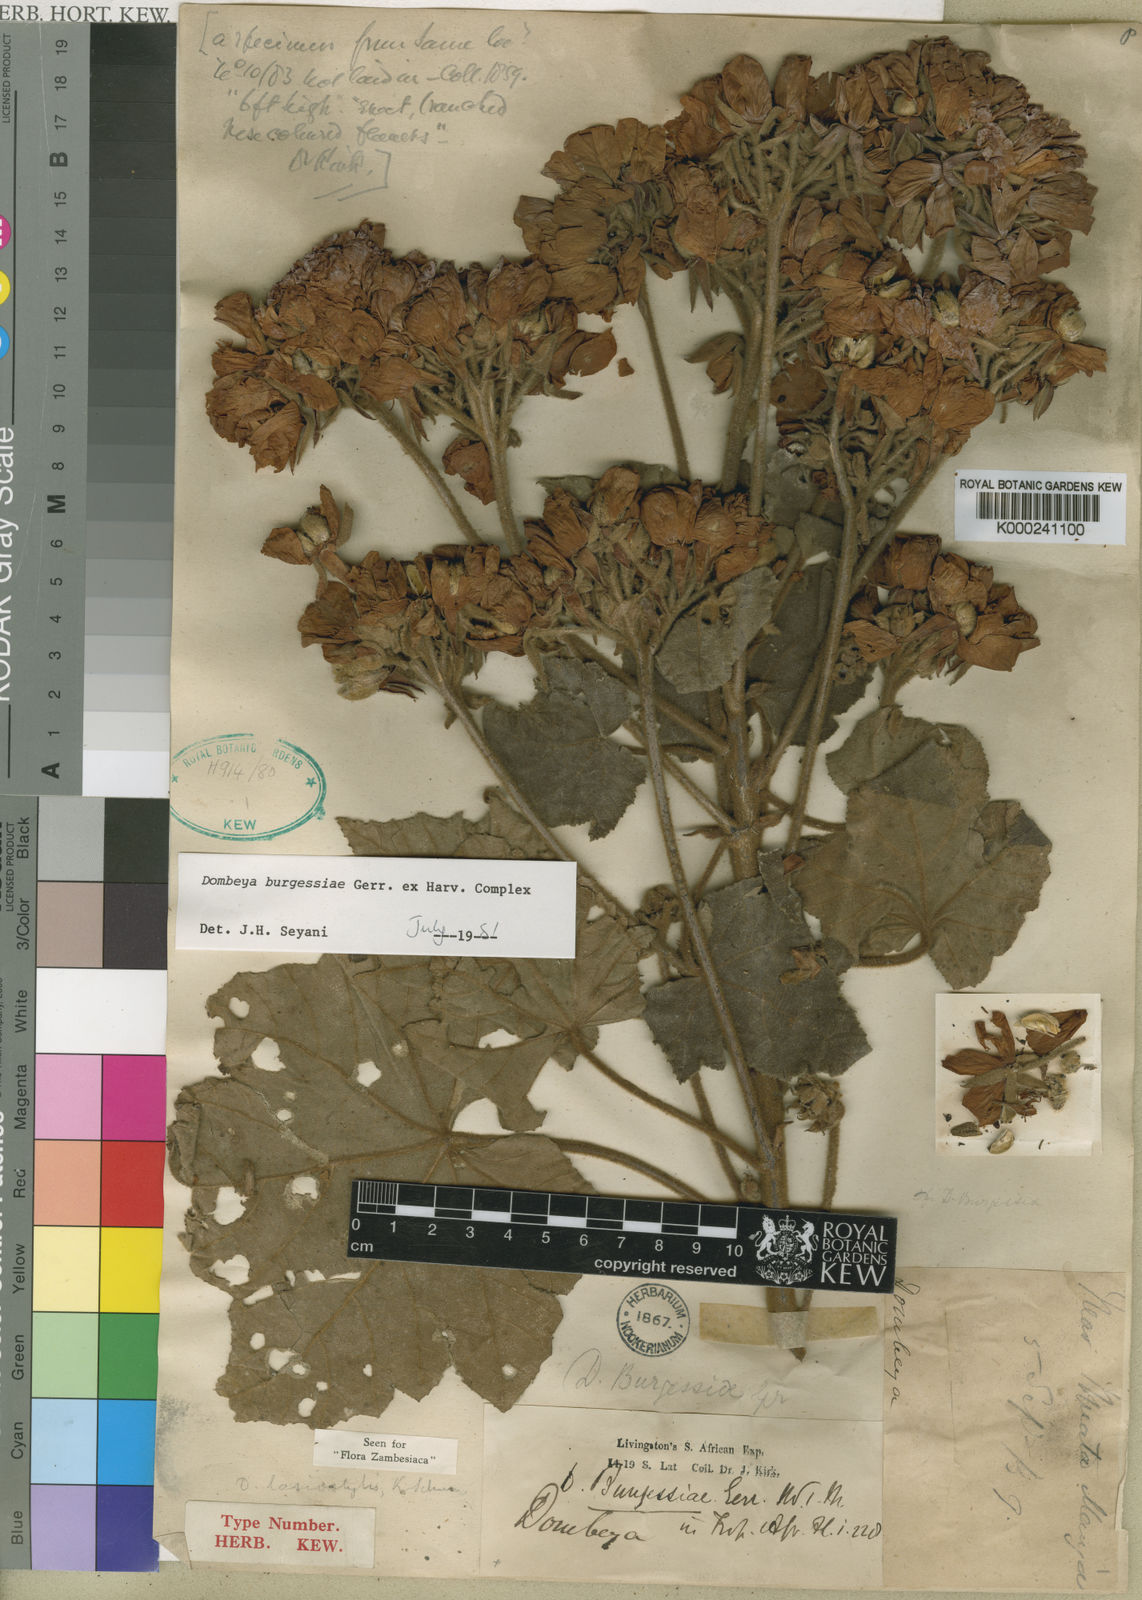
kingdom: Plantae
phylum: Tracheophyta
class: Magnoliopsida
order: Malvales
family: Malvaceae
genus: Dombeya
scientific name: Dombeya burgessiae
